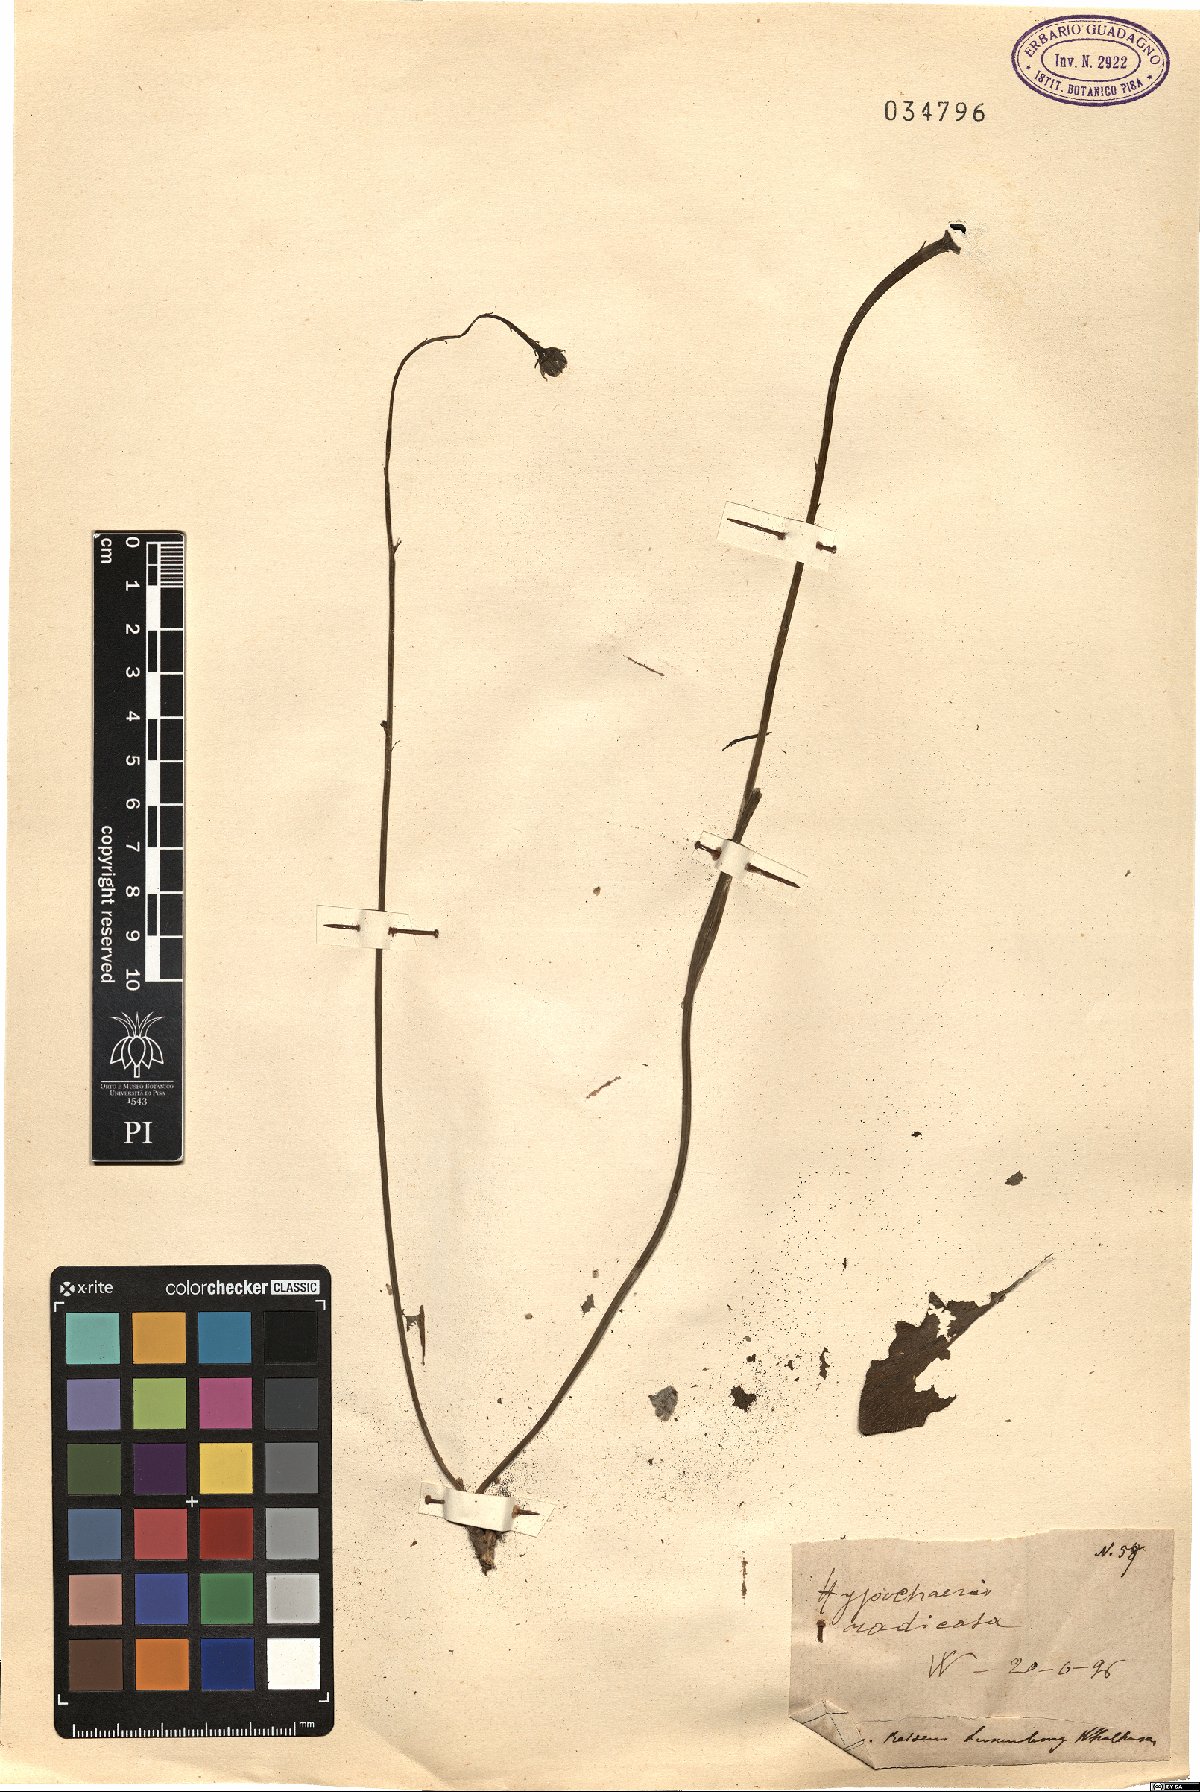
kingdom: Plantae
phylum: Tracheophyta
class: Magnoliopsida
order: Asterales
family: Asteraceae
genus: Hypochaeris
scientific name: Hypochaeris radicata
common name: Flatweed
